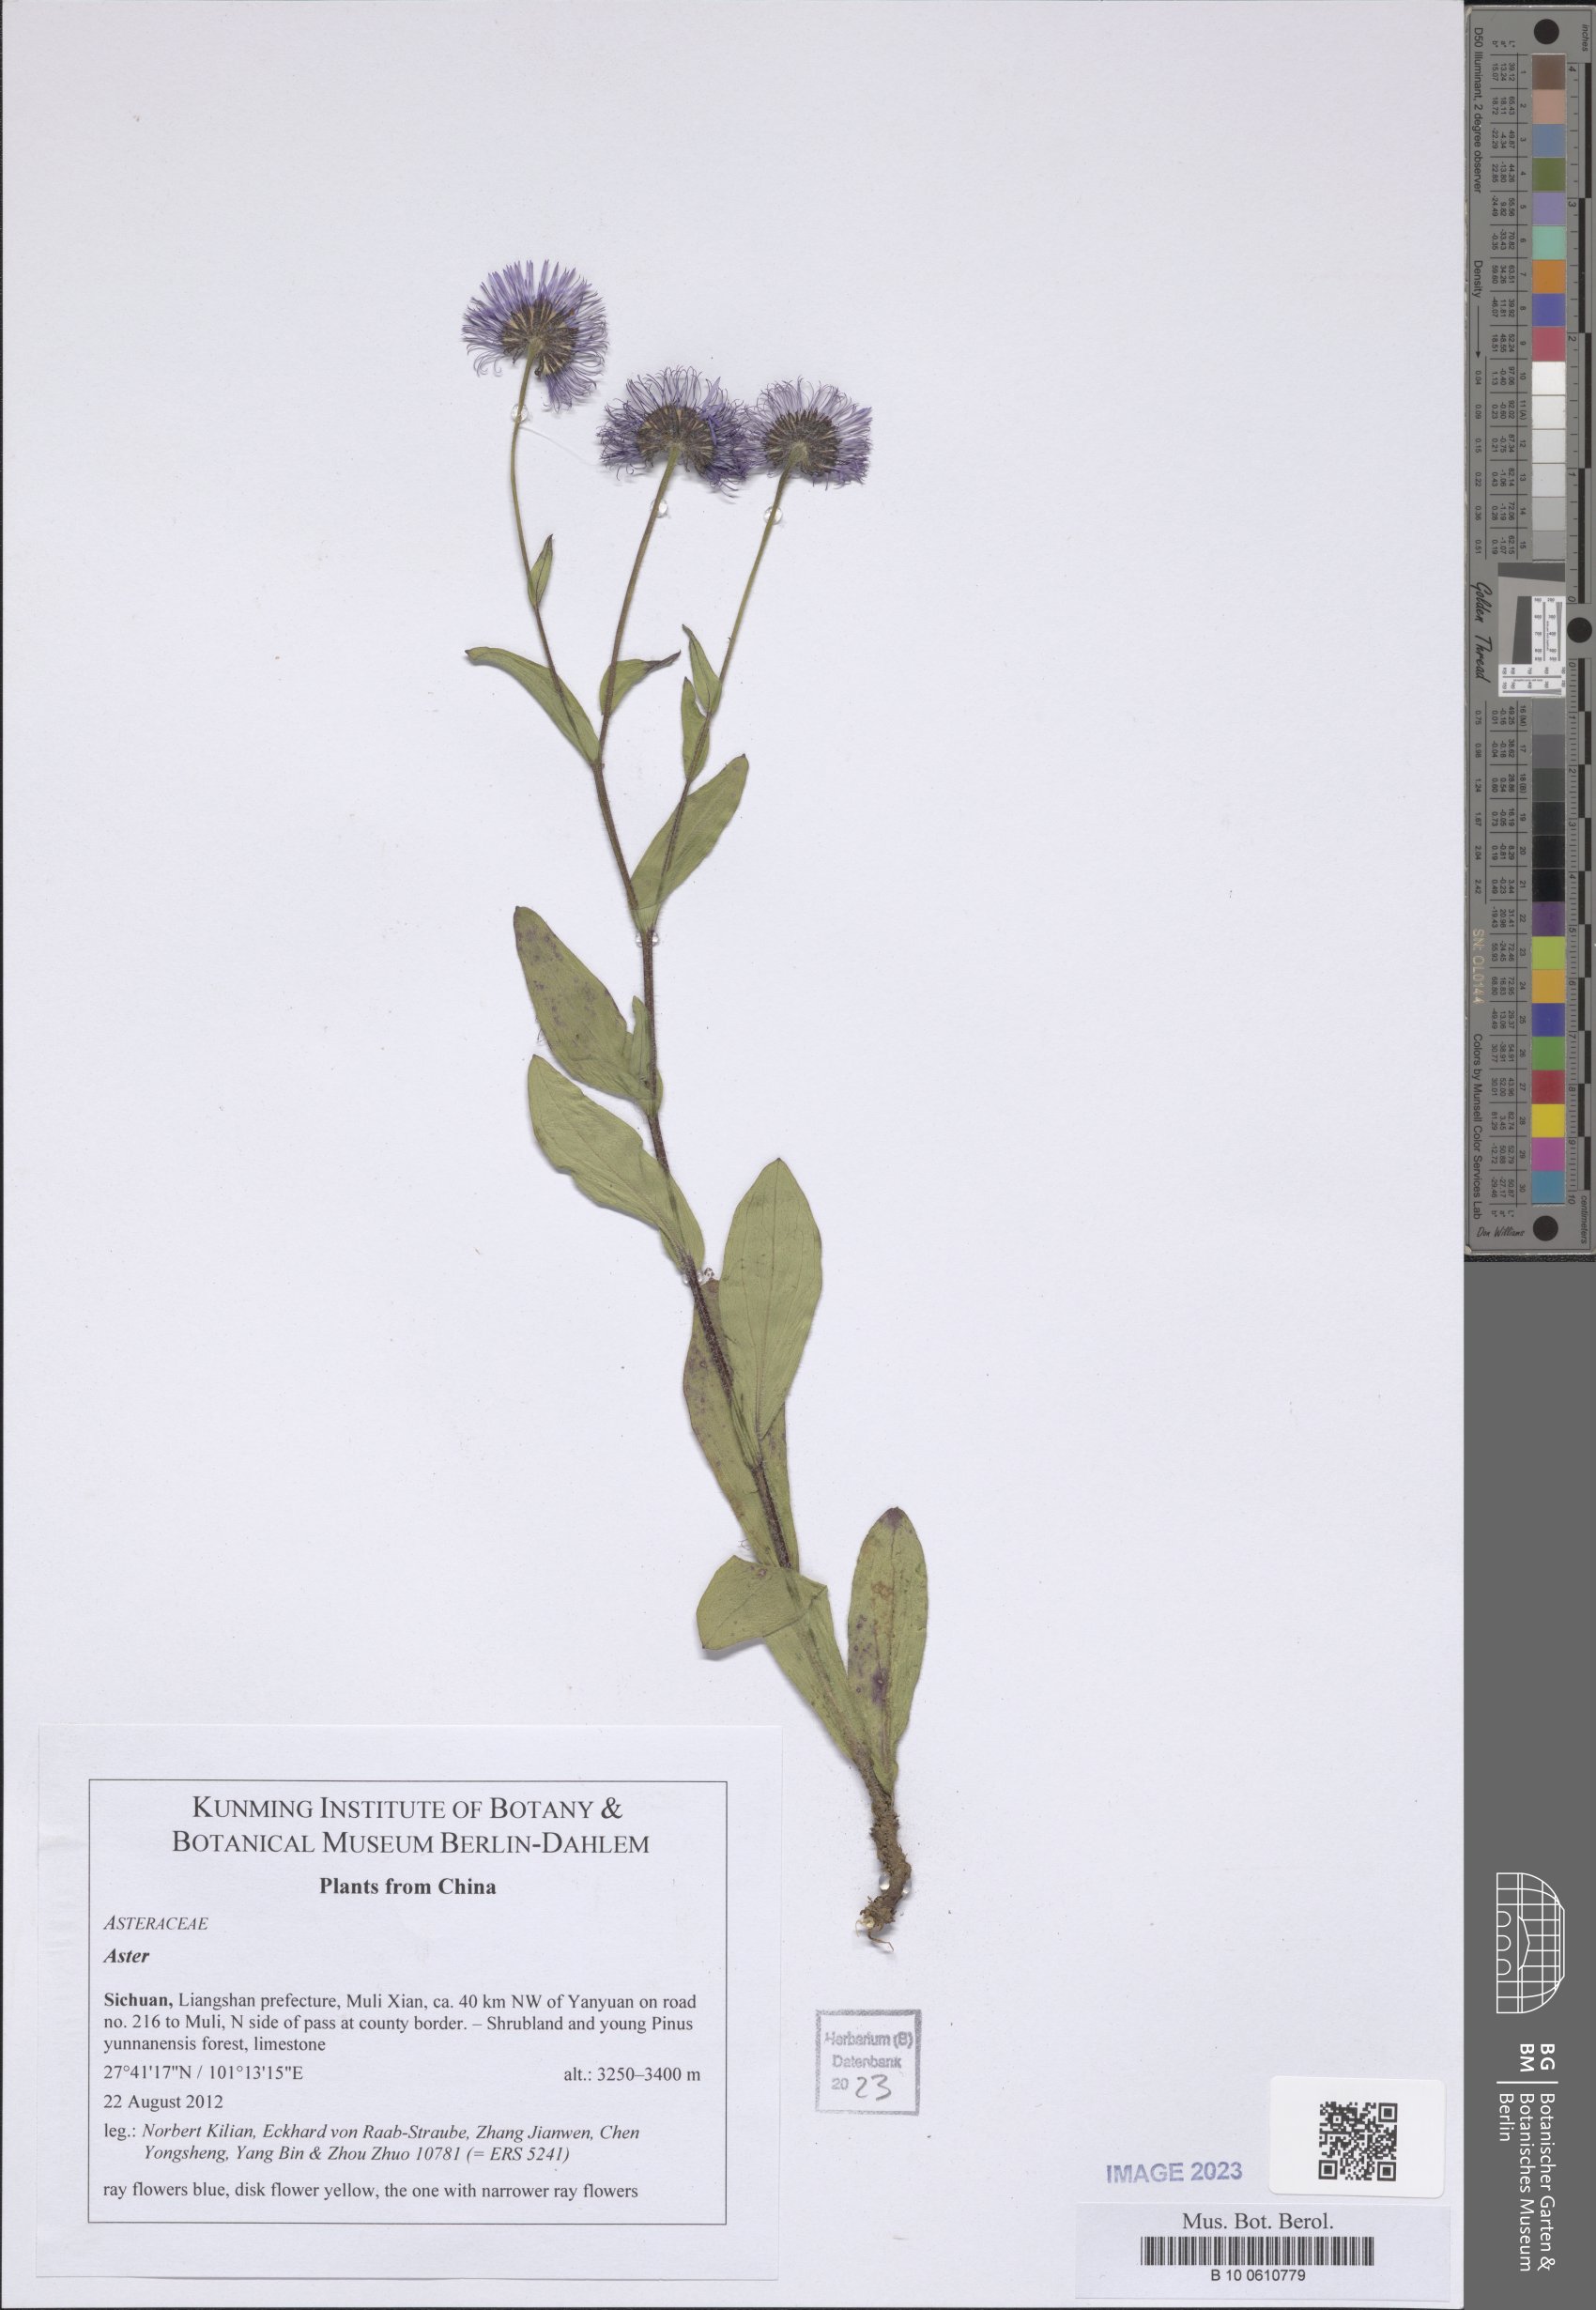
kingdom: Plantae
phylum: Tracheophyta
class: Magnoliopsida
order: Asterales
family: Asteraceae
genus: Aster
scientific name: Aster
